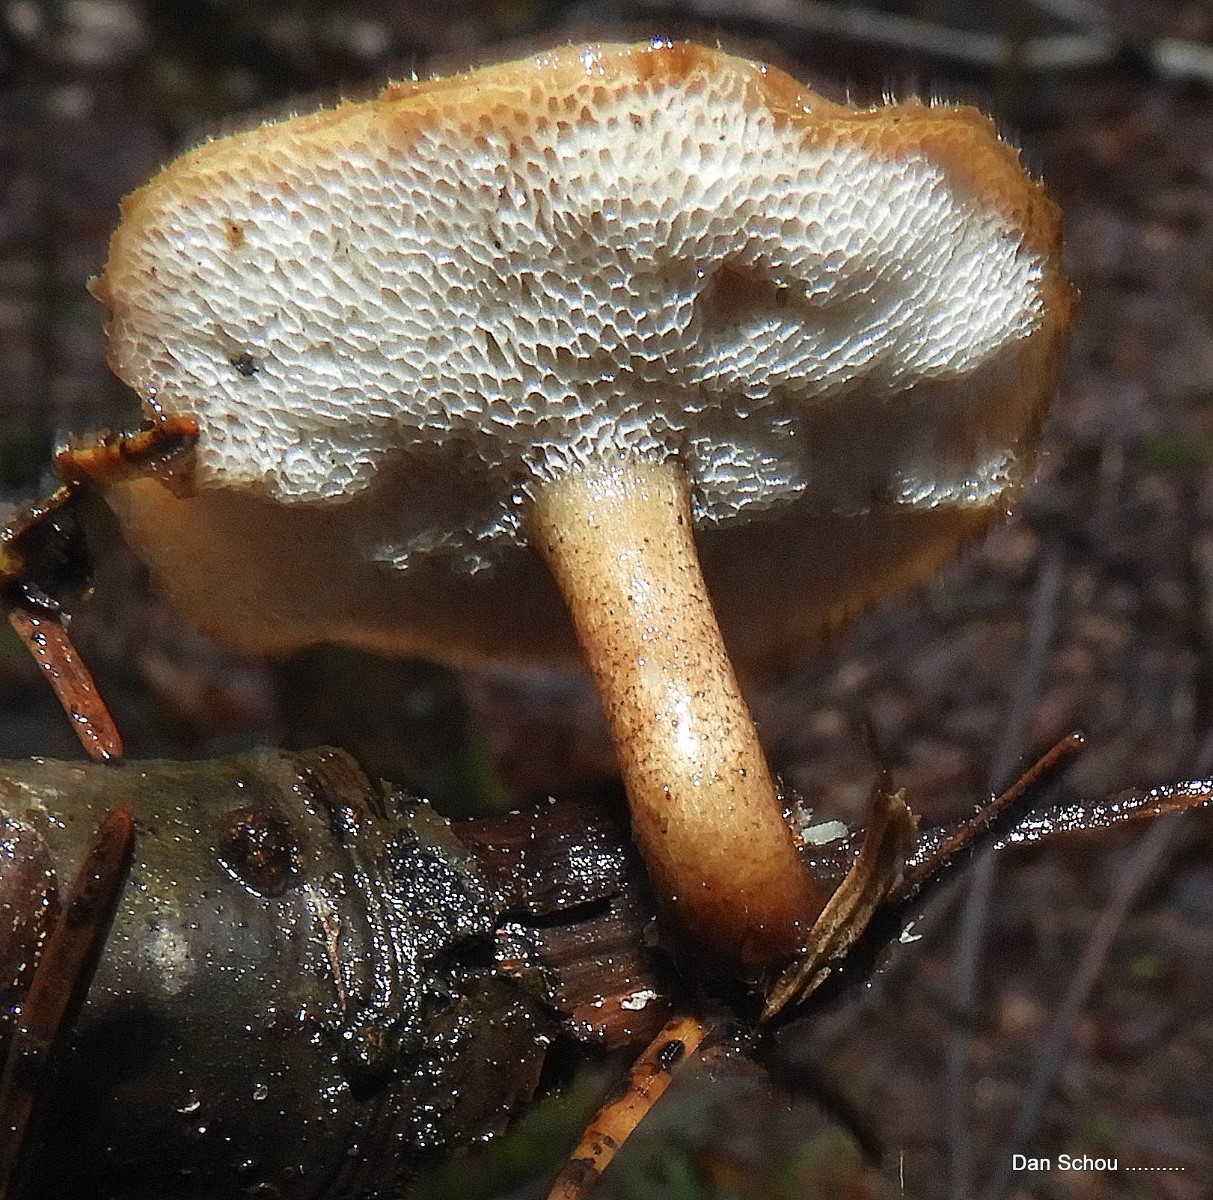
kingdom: Fungi
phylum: Basidiomycota
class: Agaricomycetes
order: Polyporales
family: Polyporaceae
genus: Lentinus
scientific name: Lentinus brumalis
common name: vinter-stilkporesvamp
